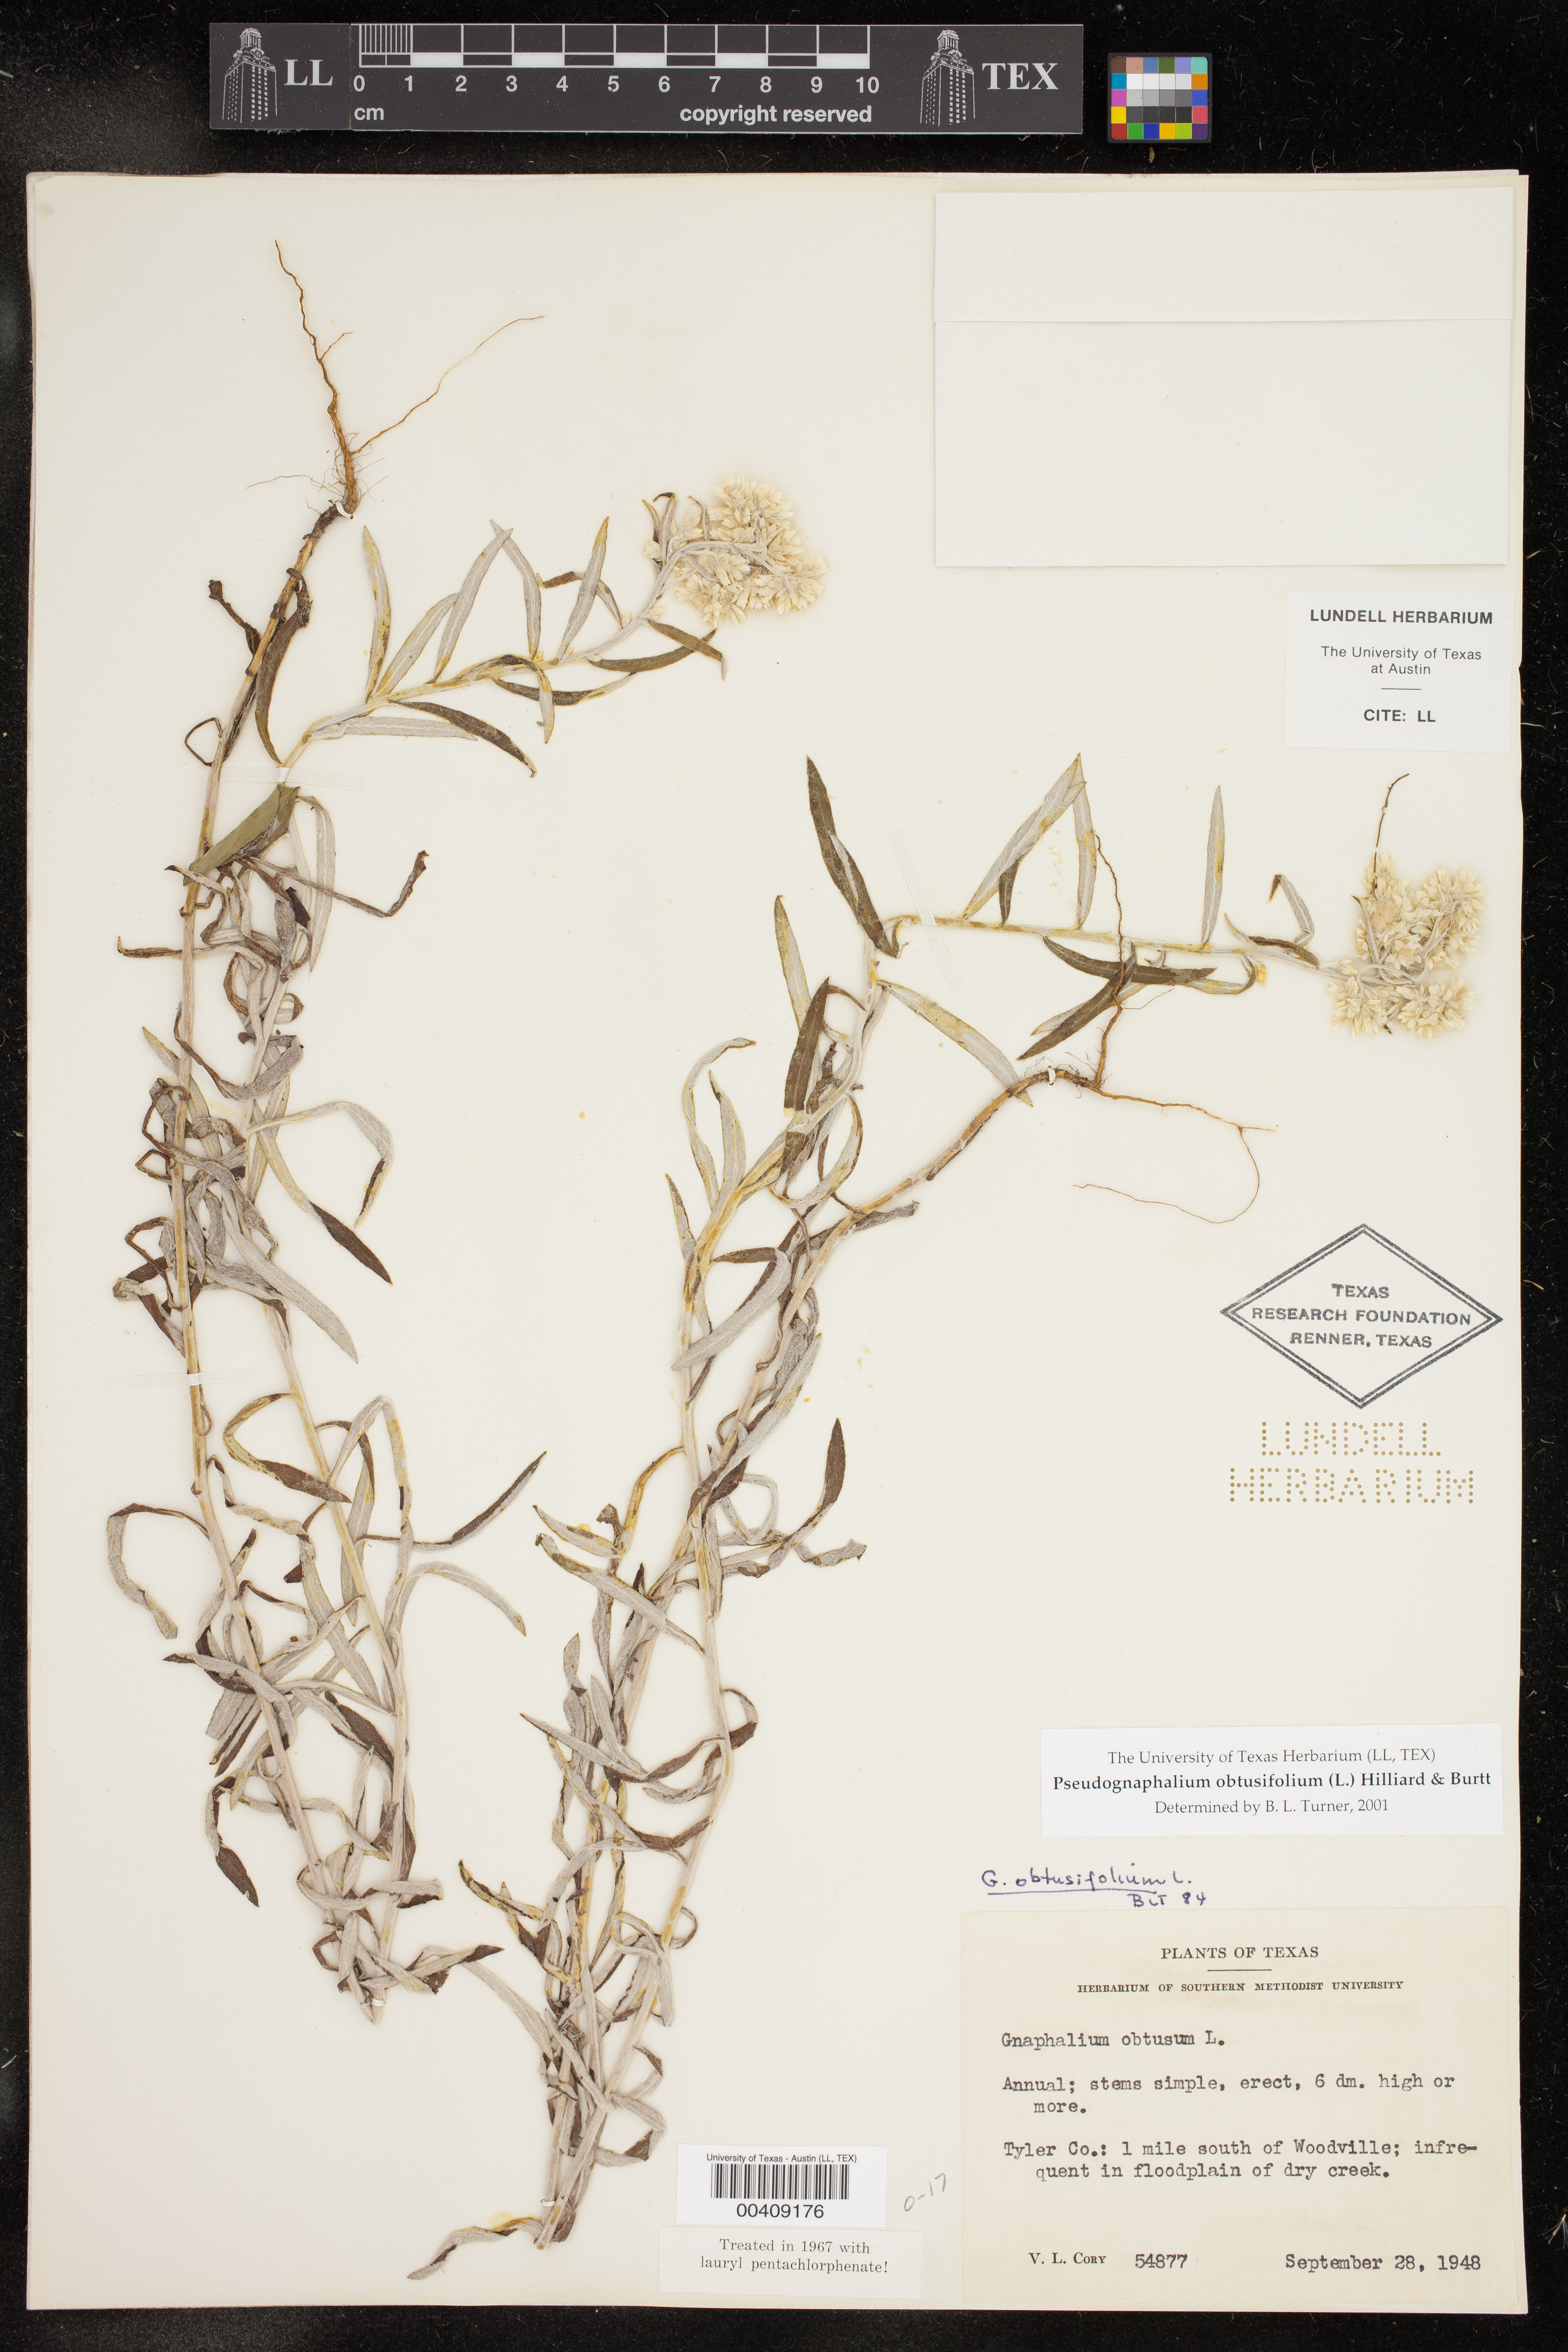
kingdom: Plantae
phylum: Tracheophyta
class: Magnoliopsida
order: Asterales
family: Asteraceae
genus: Pseudognaphalium
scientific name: Pseudognaphalium obtusifolium
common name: Eastern rabbit-tobacco
